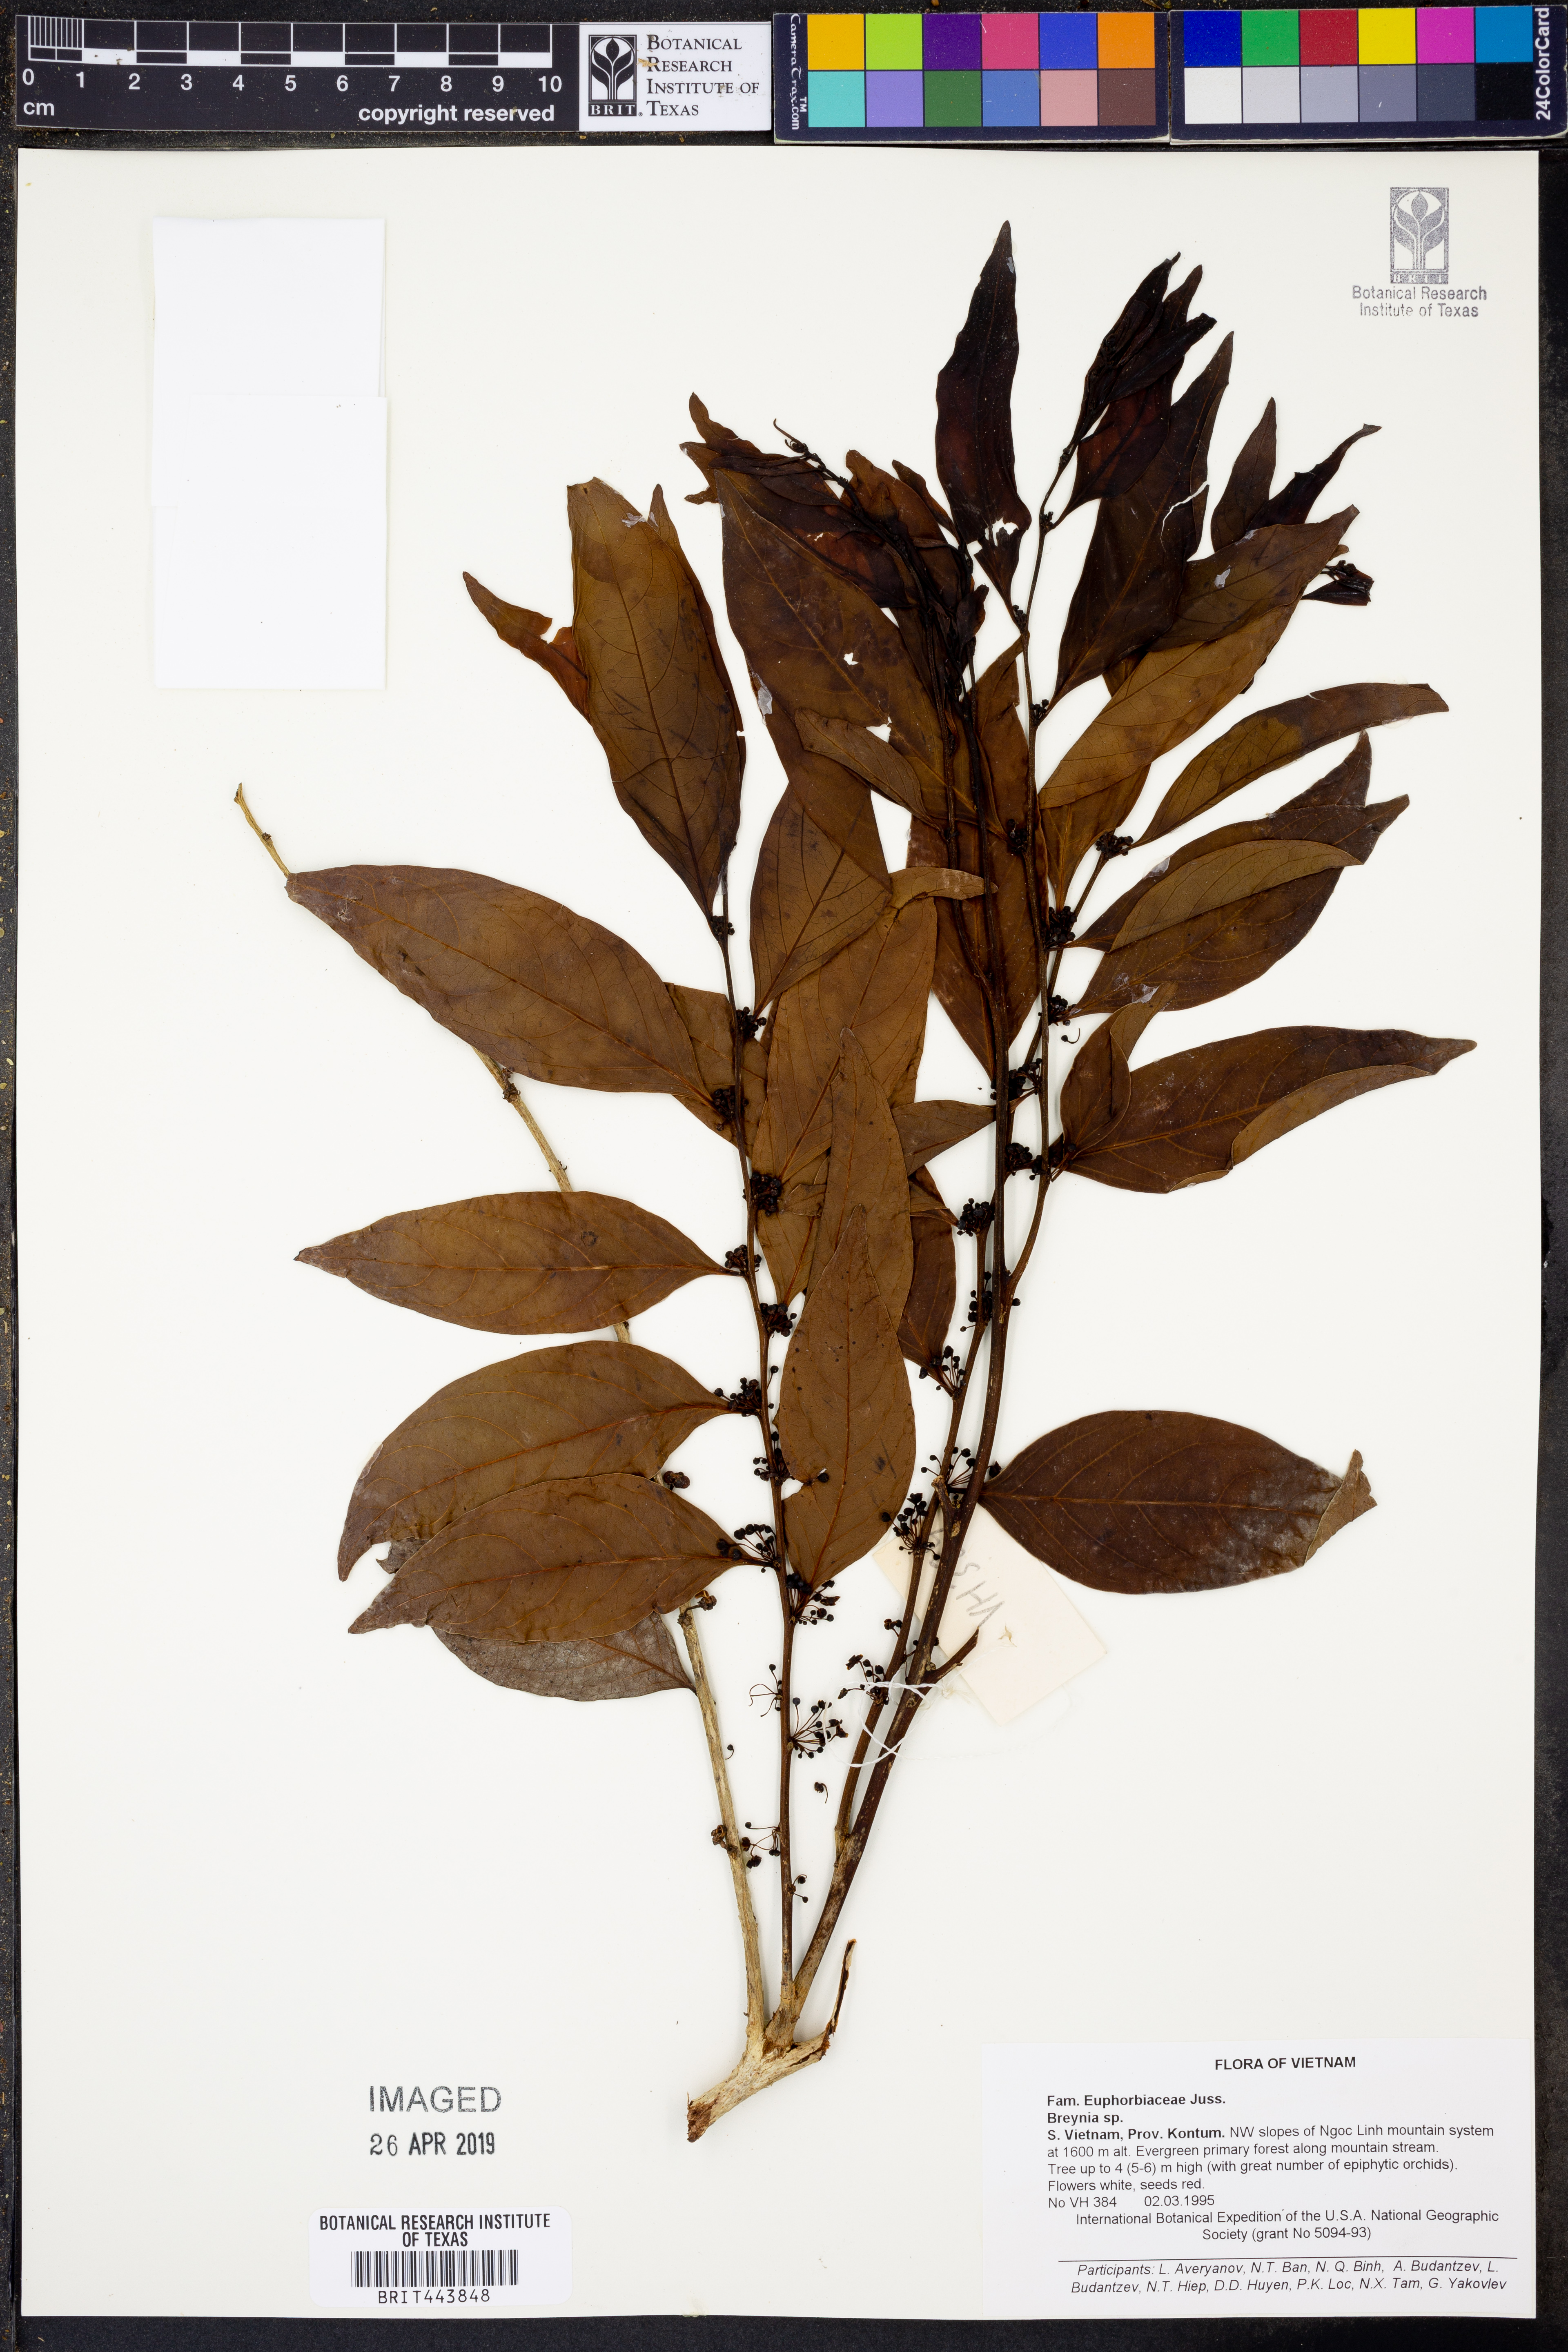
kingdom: Plantae
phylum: Tracheophyta
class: Magnoliopsida
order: Malpighiales
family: Phyllanthaceae
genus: Breynia
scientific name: Breynia
